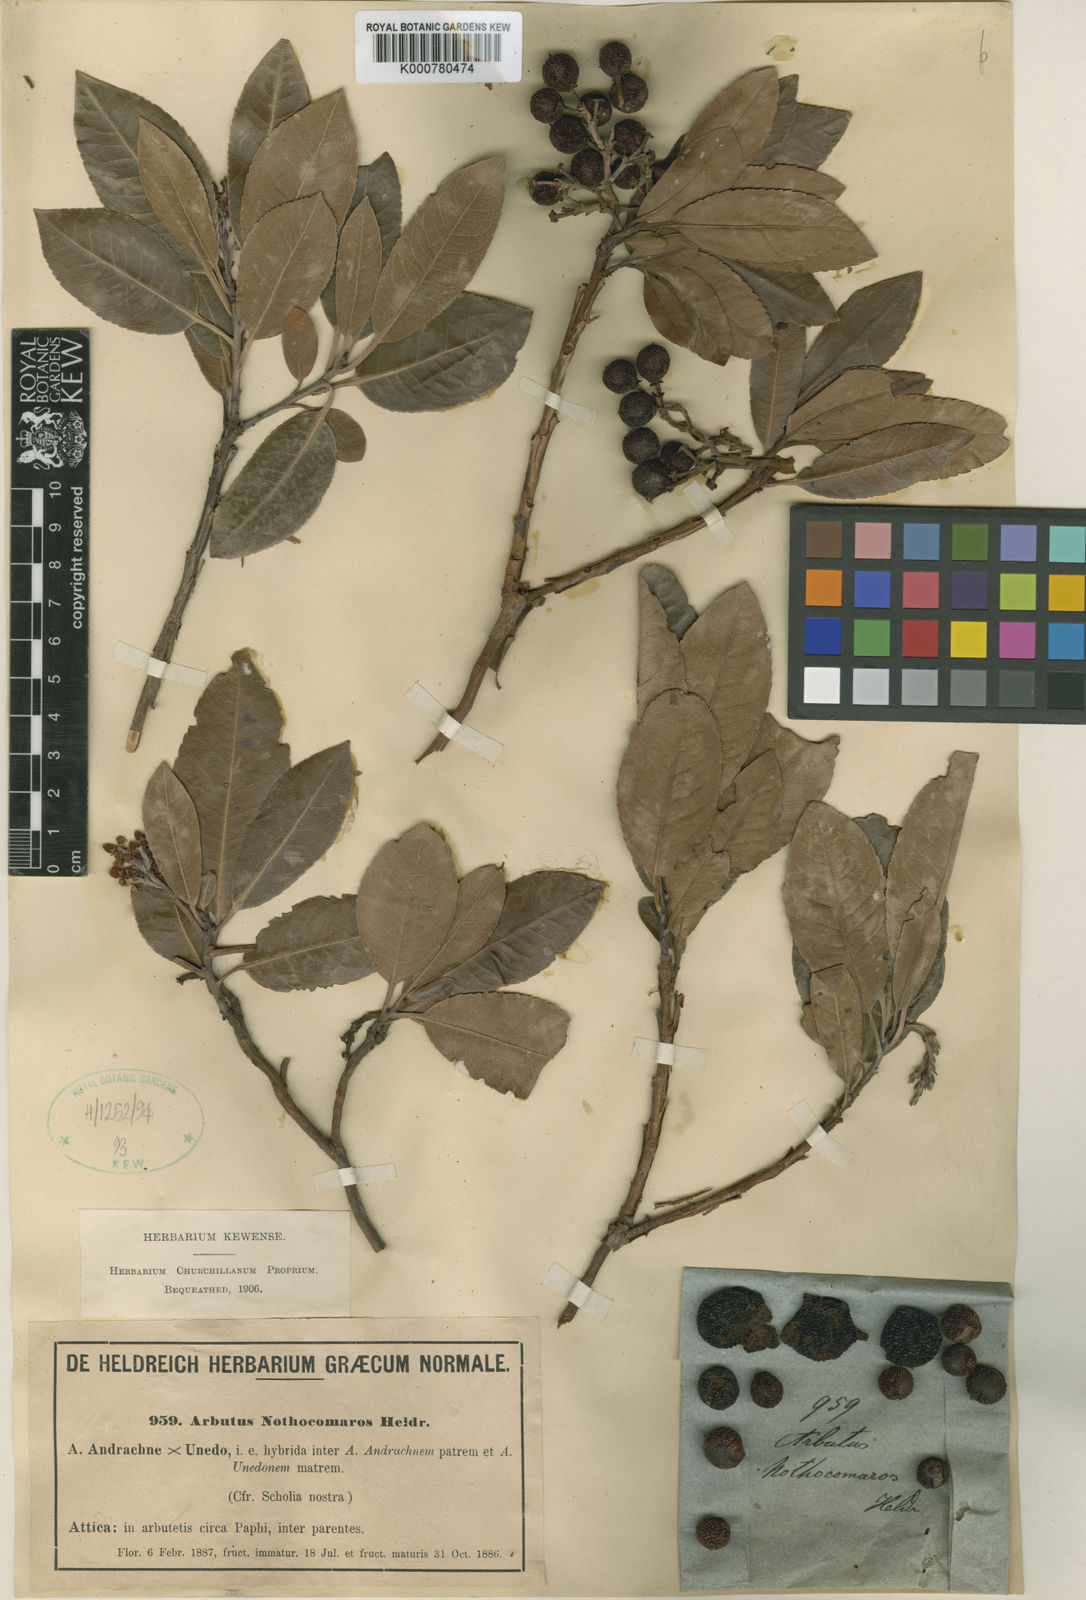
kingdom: Plantae
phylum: Tracheophyta
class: Magnoliopsida
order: Ericales
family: Ericaceae
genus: Arbutus
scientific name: Arbutus andrachnoides
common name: Hybrid strawberry-tree
